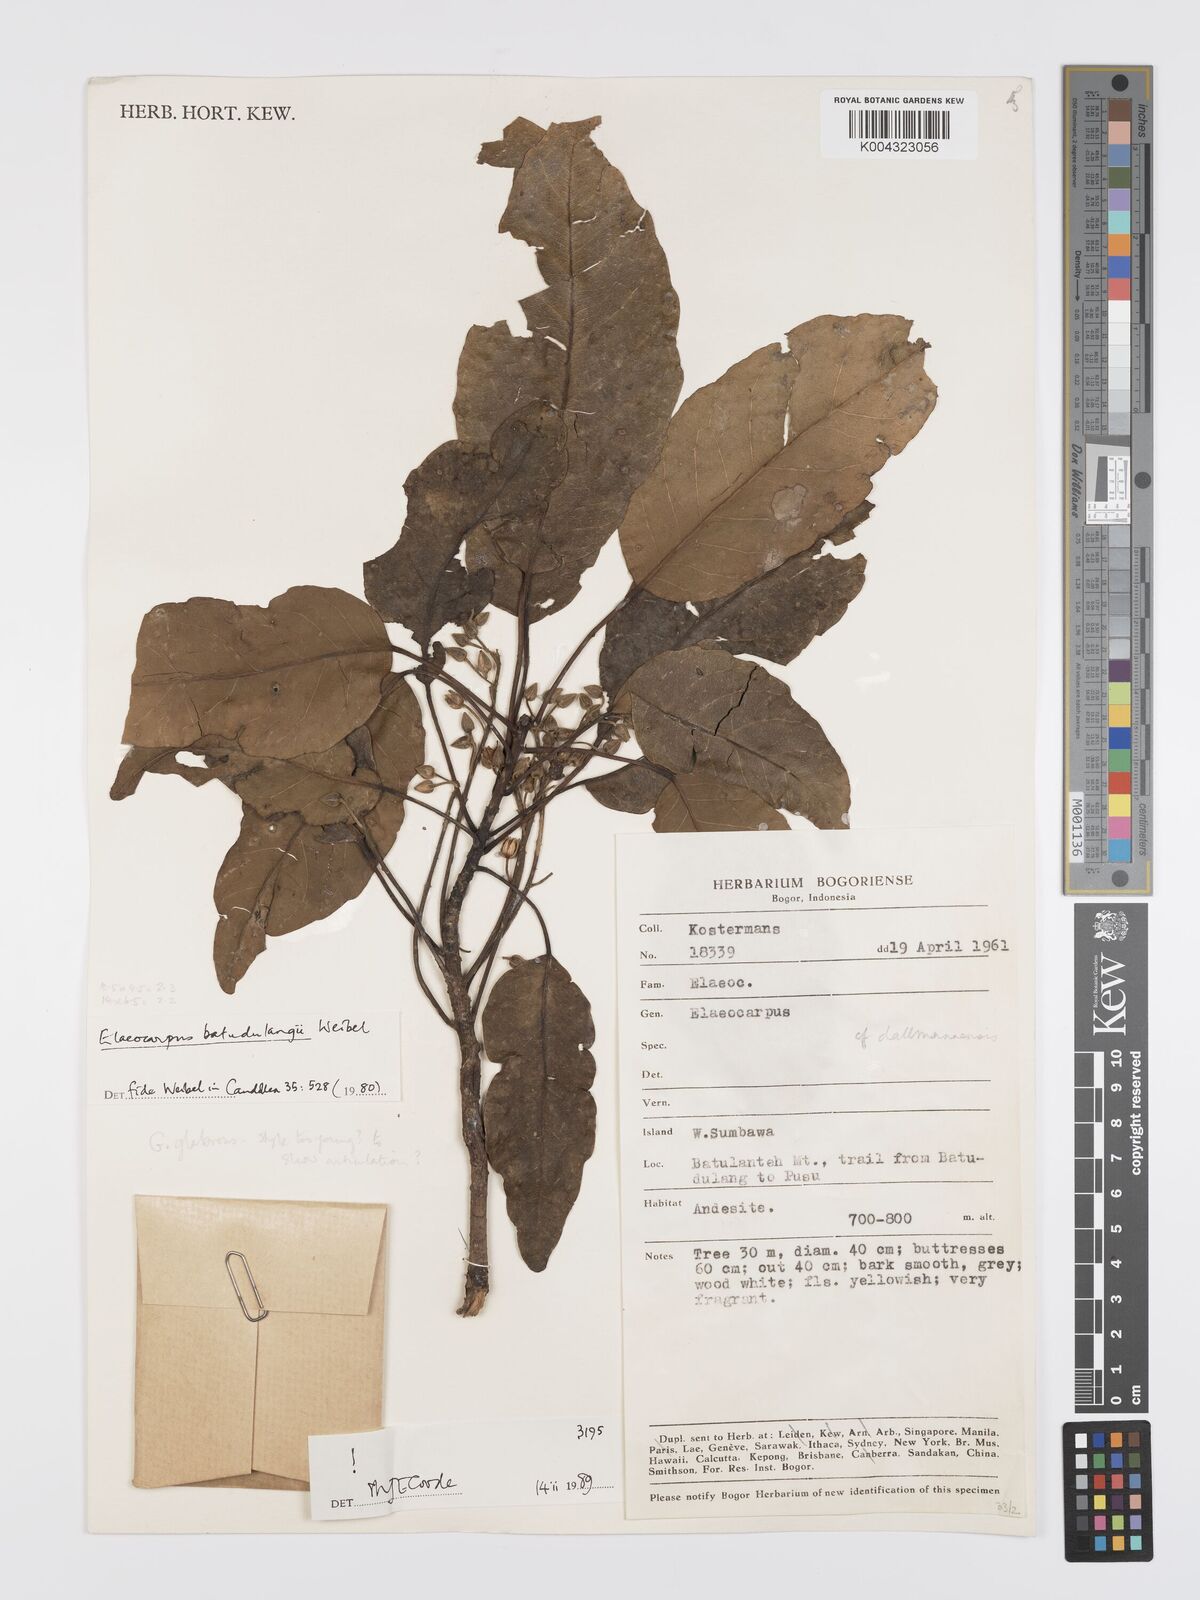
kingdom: Plantae
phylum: Tracheophyta
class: Magnoliopsida
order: Oxalidales
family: Elaeocarpaceae
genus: Elaeocarpus
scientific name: Elaeocarpus batudulangii
